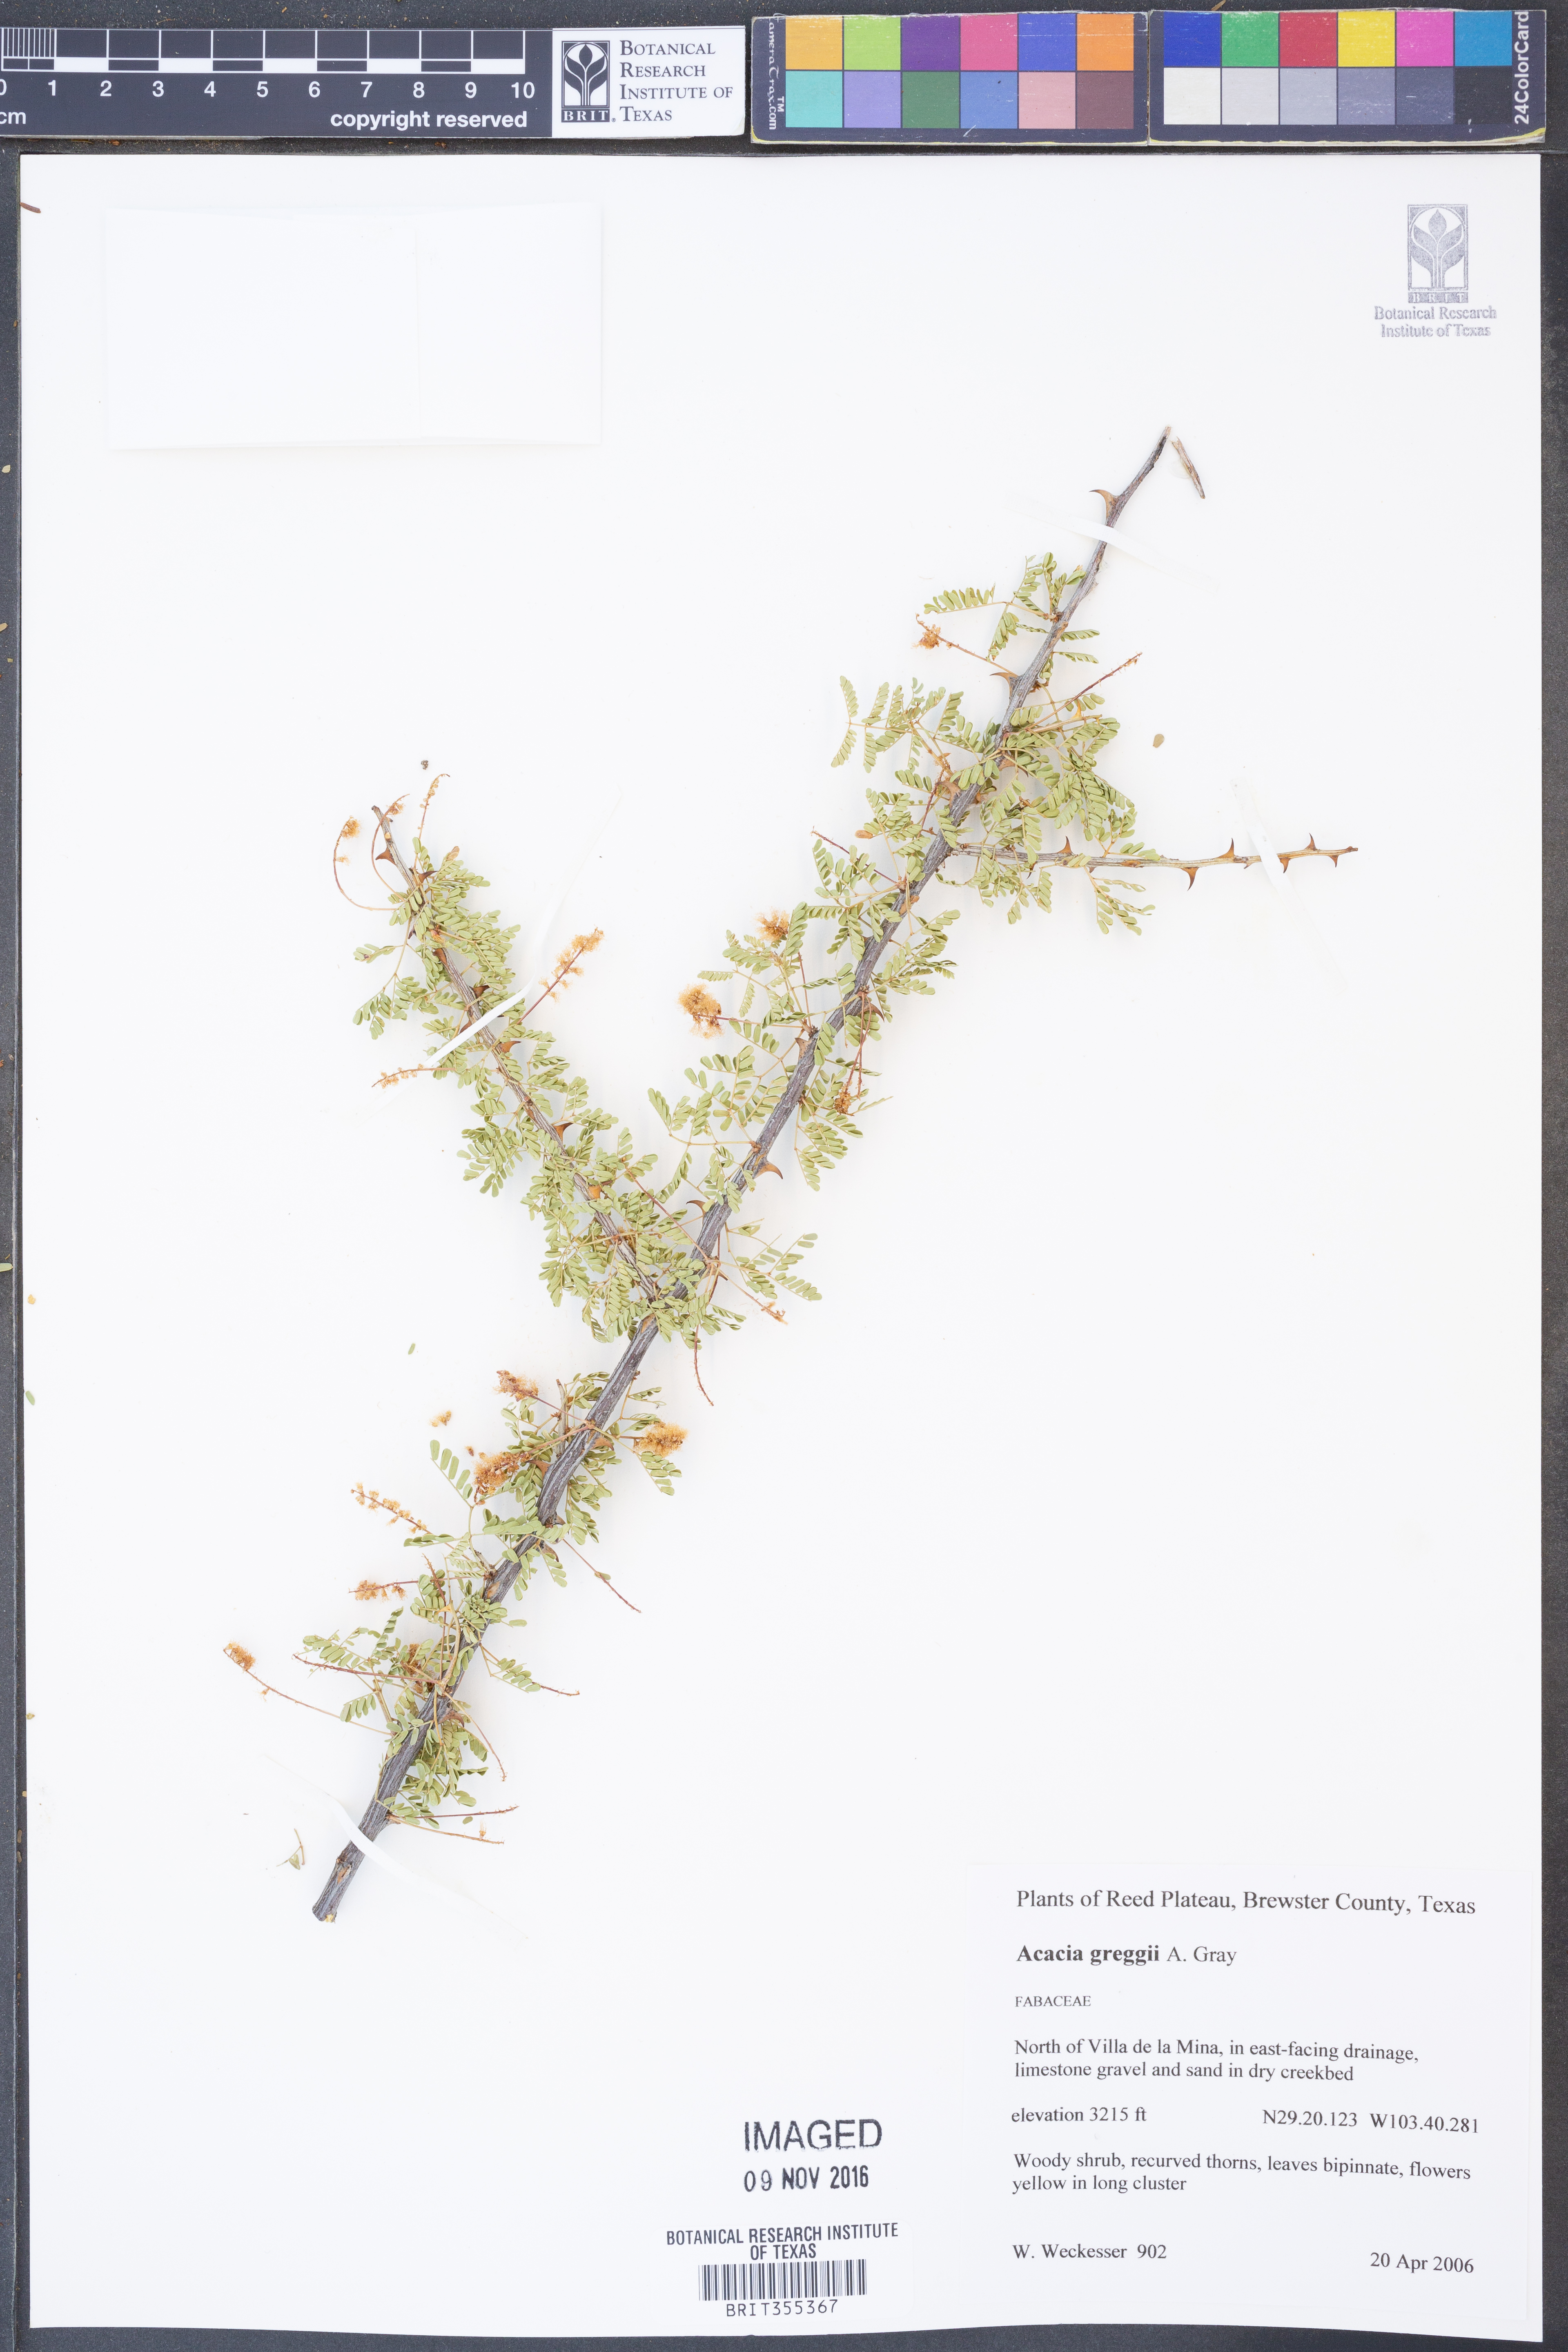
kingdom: Plantae
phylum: Tracheophyta
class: Magnoliopsida
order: Fabales
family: Fabaceae
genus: Senegalia
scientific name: Senegalia greggii
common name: Texas-mimosa
